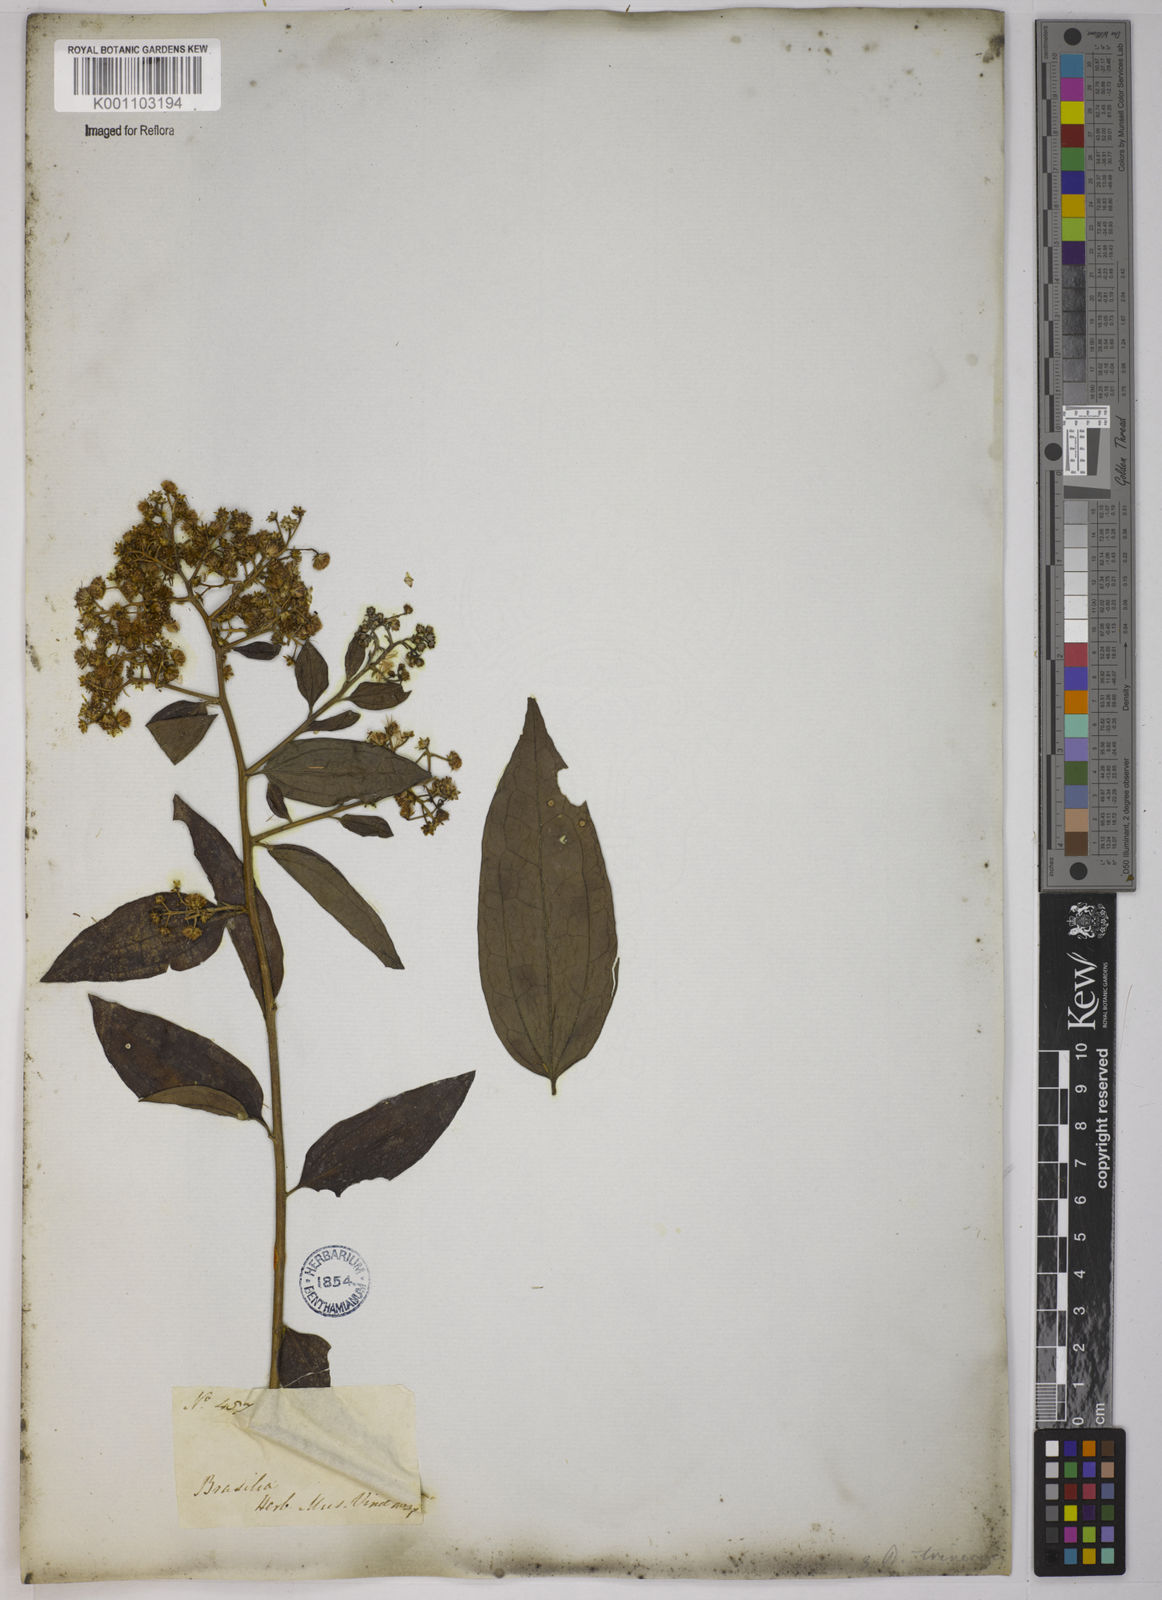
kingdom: Plantae
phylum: Tracheophyta
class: Magnoliopsida
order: Asterales
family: Asteraceae
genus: Baccharis
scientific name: Baccharis trinervis
